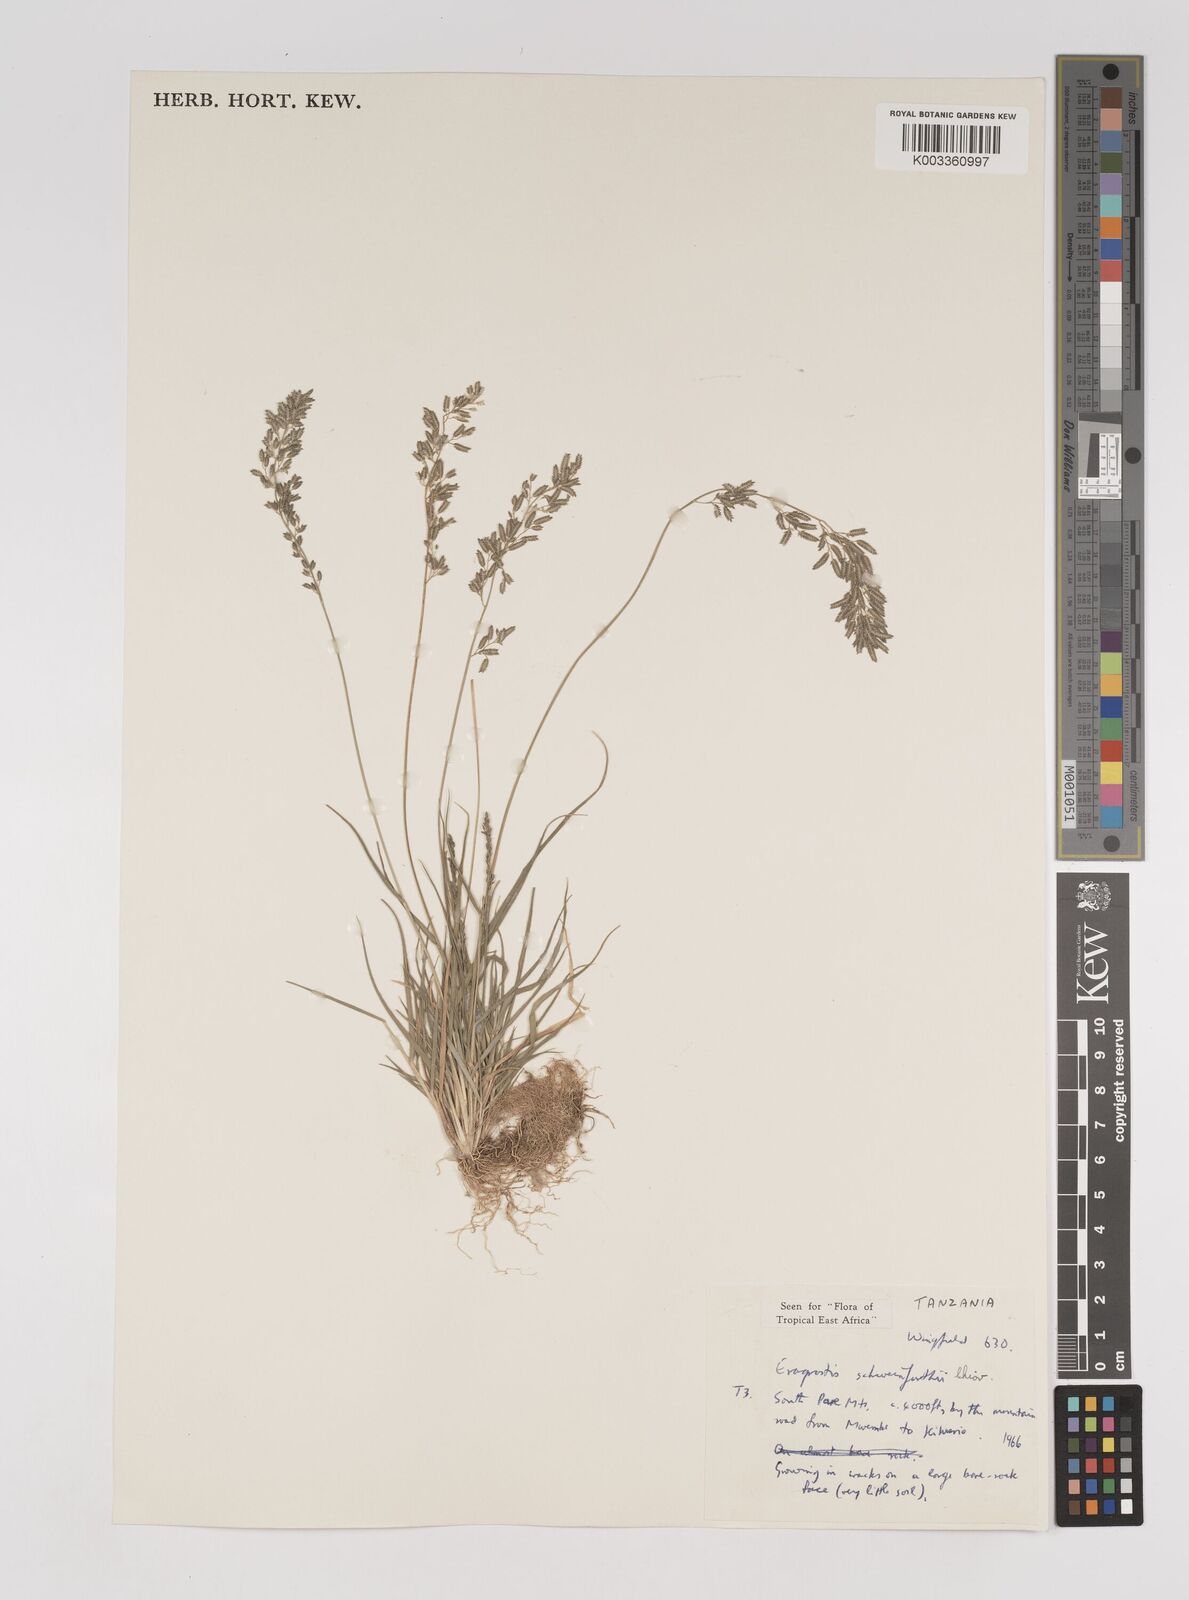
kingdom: Plantae
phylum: Tracheophyta
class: Liliopsida
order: Poales
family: Poaceae
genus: Eragrostis
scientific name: Eragrostis schweinfurthii
